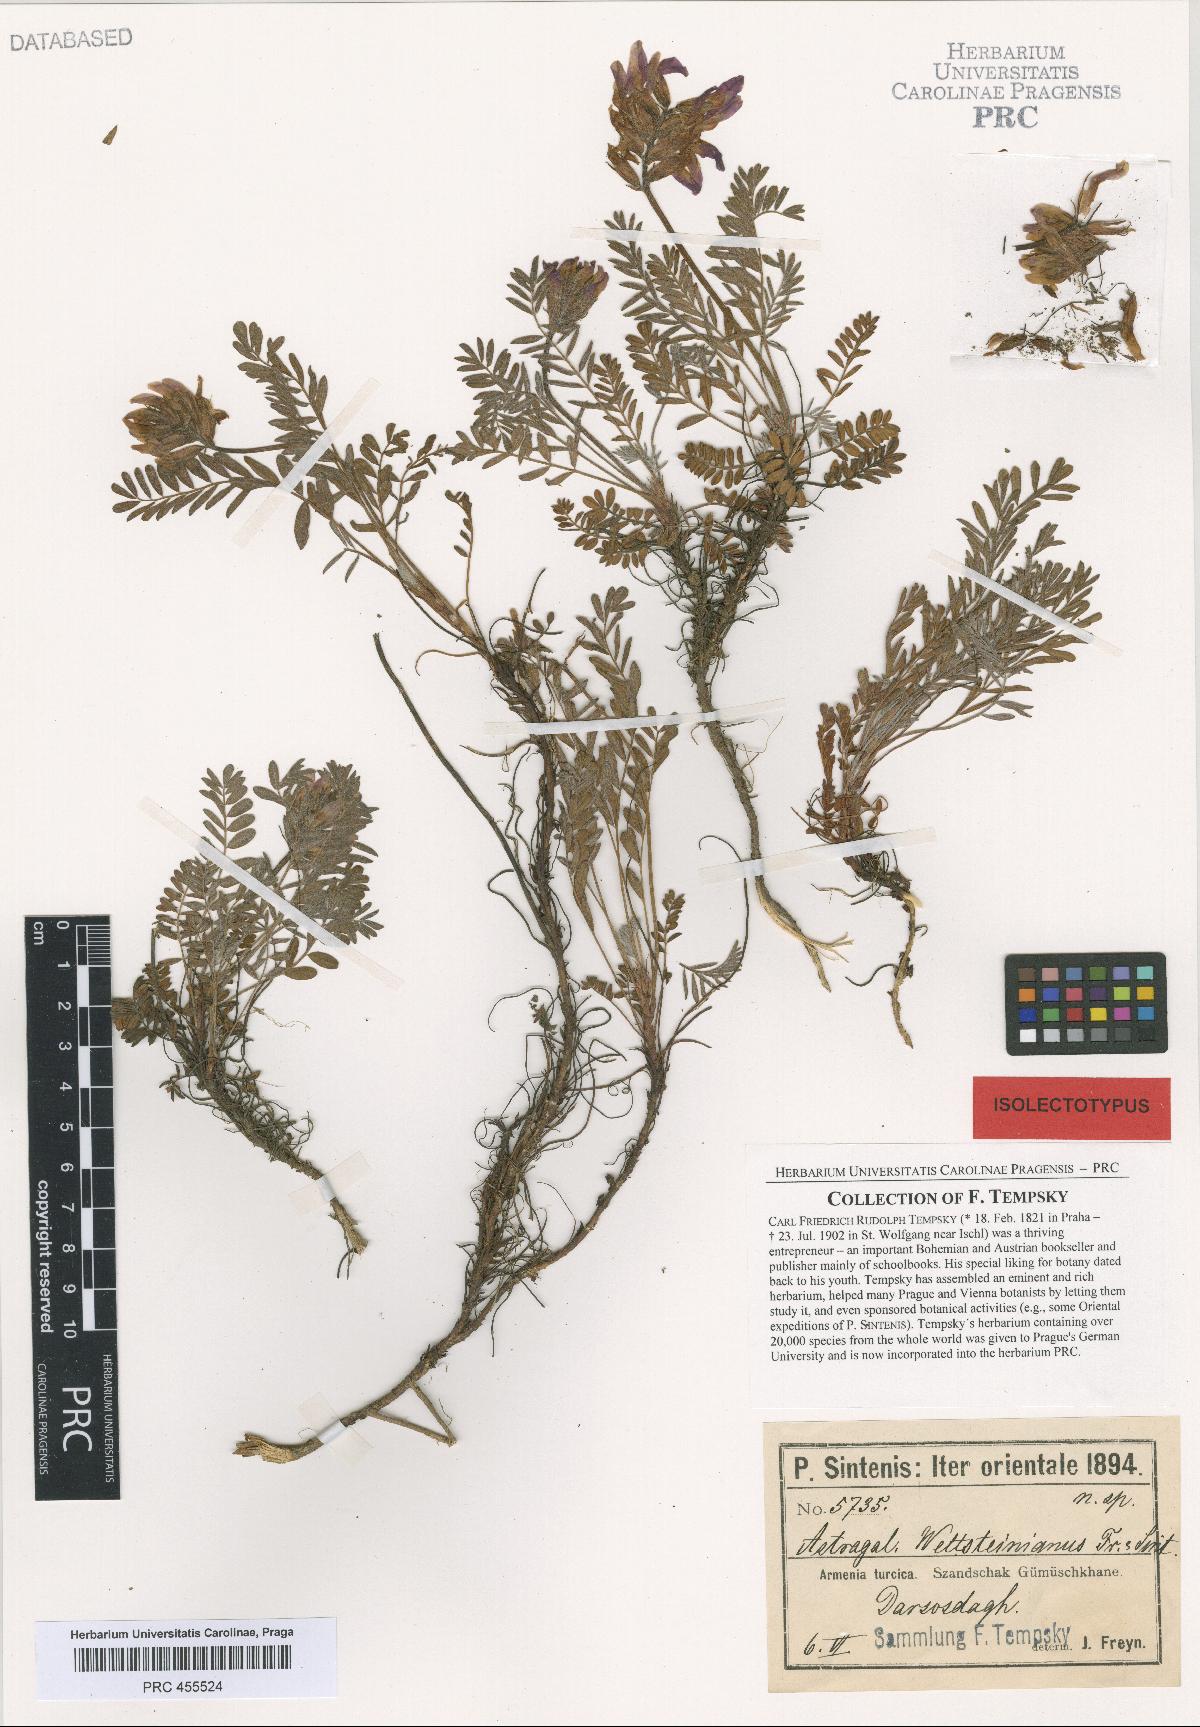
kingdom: Plantae
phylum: Tracheophyta
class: Magnoliopsida
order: Fabales
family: Fabaceae
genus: Astragalus
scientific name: Astragalus amoenus
